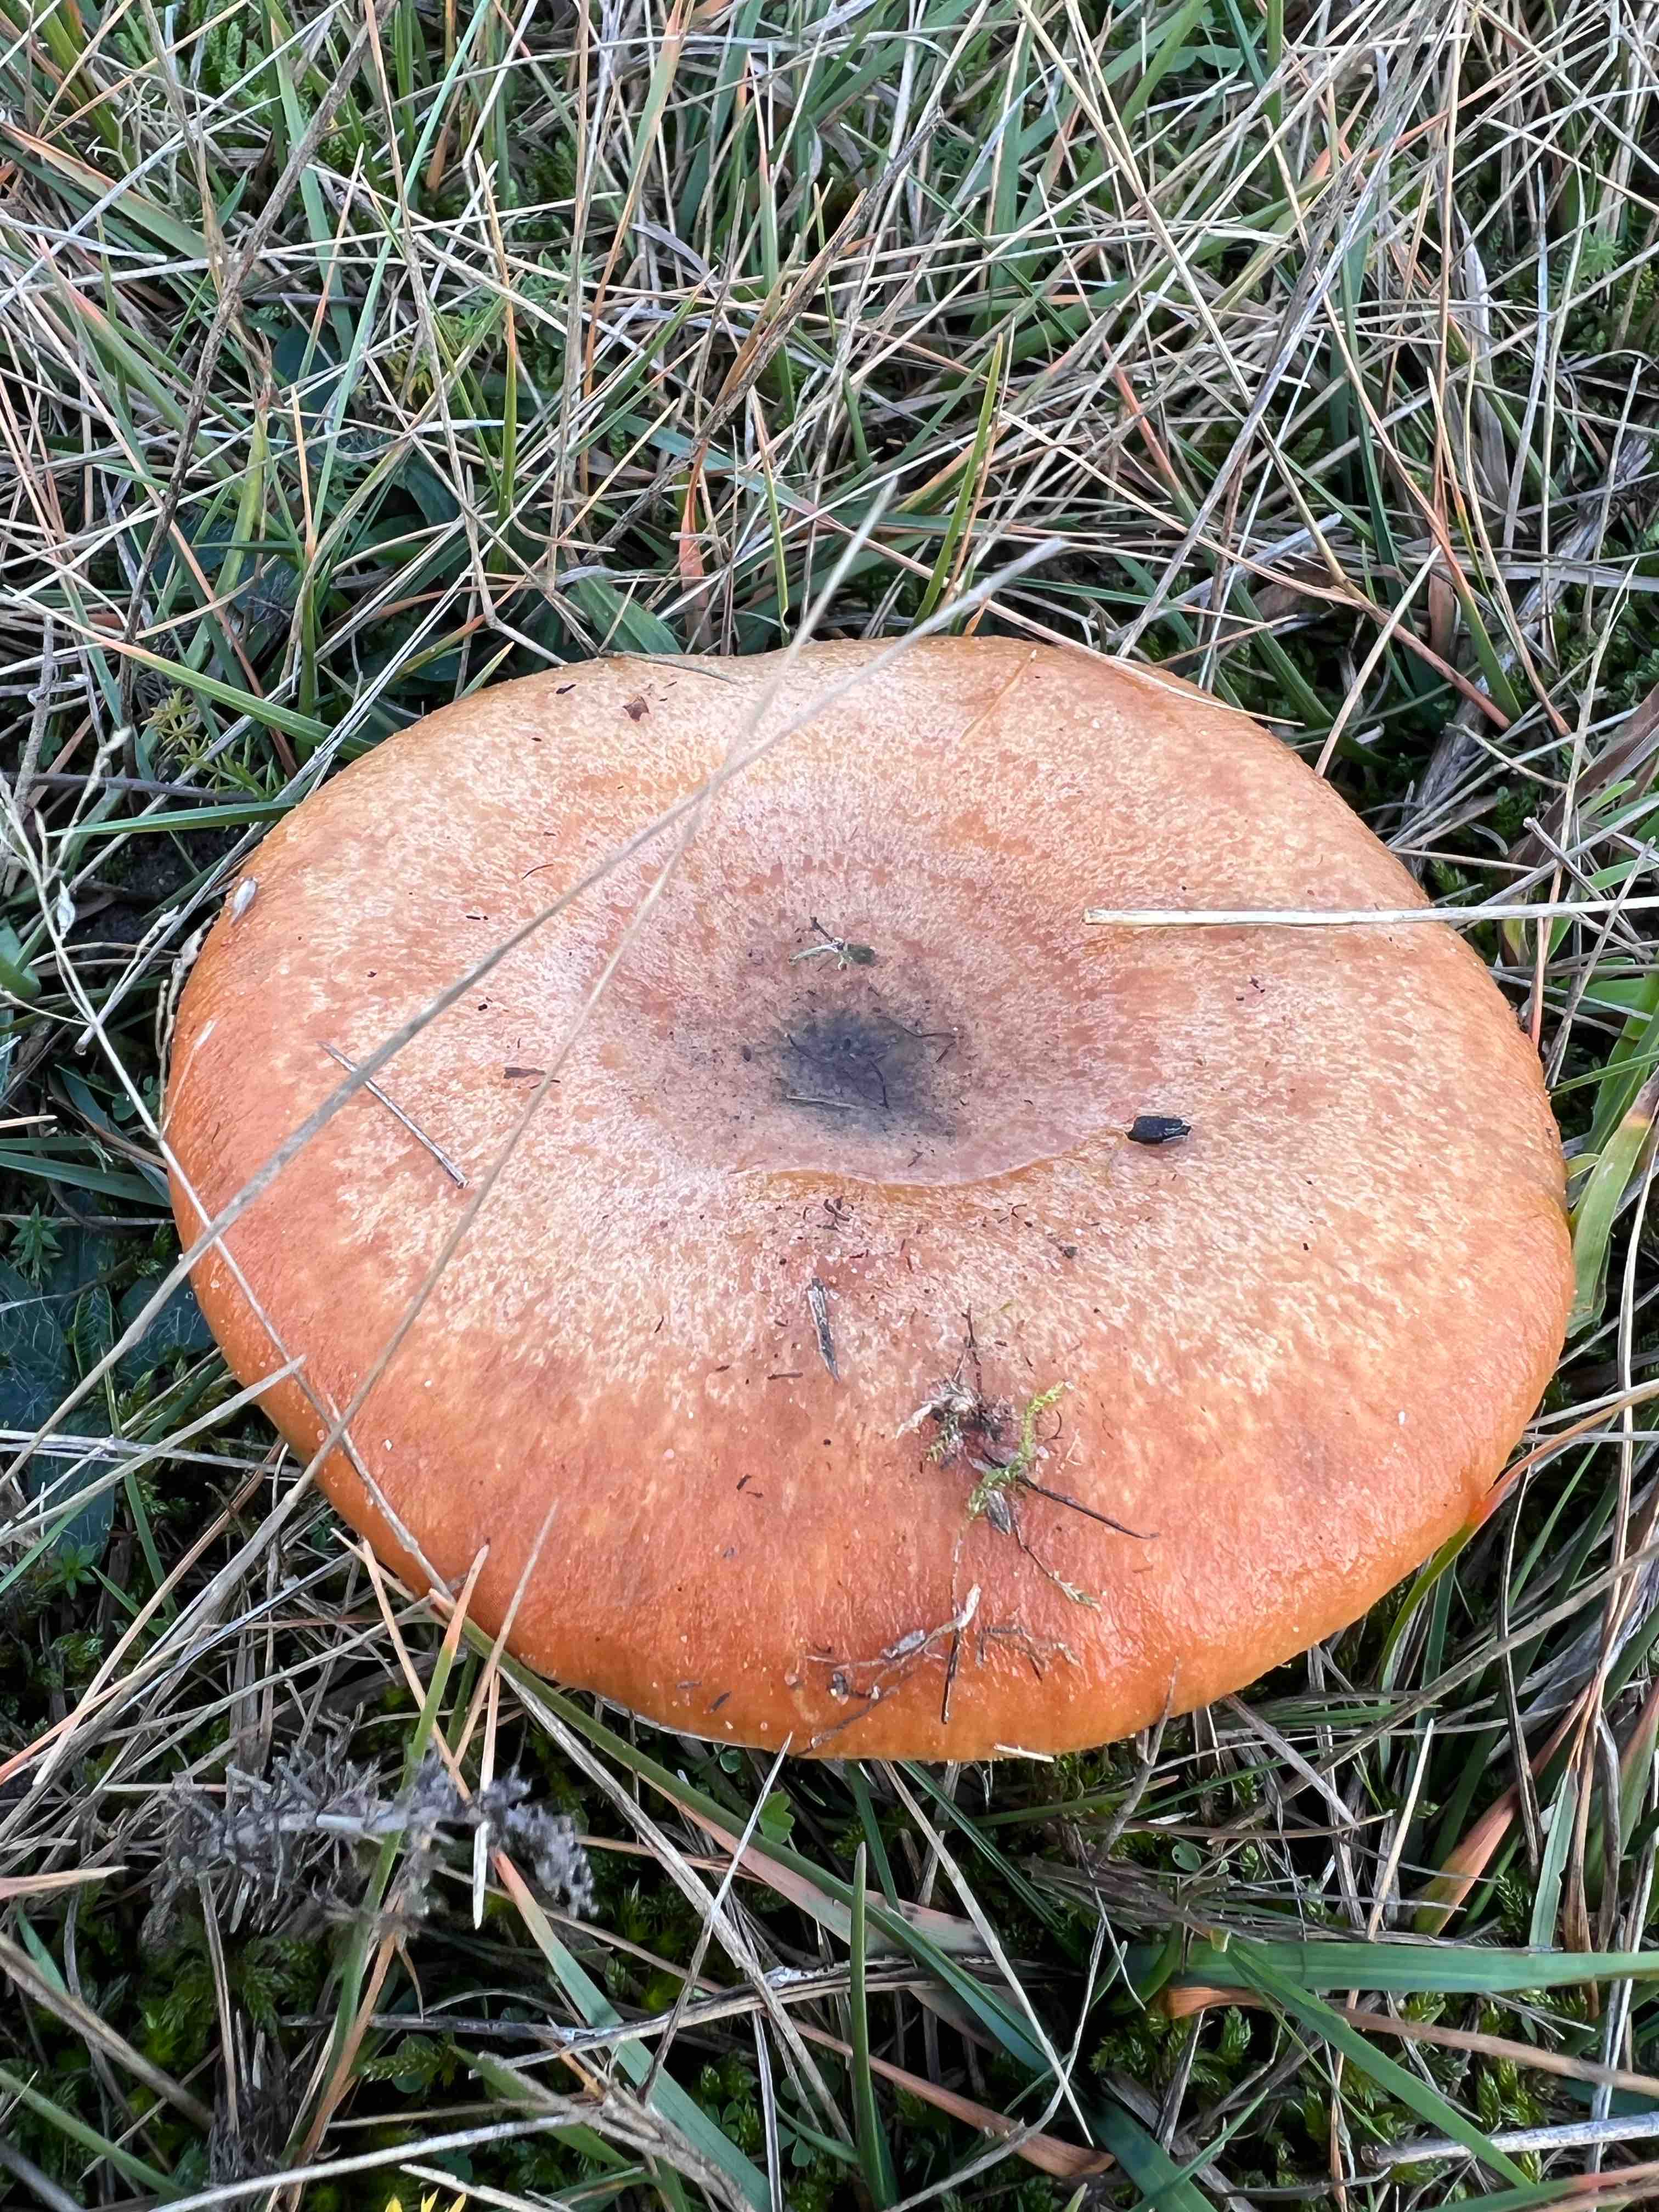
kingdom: Fungi
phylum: Basidiomycota
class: Agaricomycetes
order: Russulales
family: Russulaceae
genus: Lactarius
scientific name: Lactarius deliciosus
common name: velsmagende mælkehat
